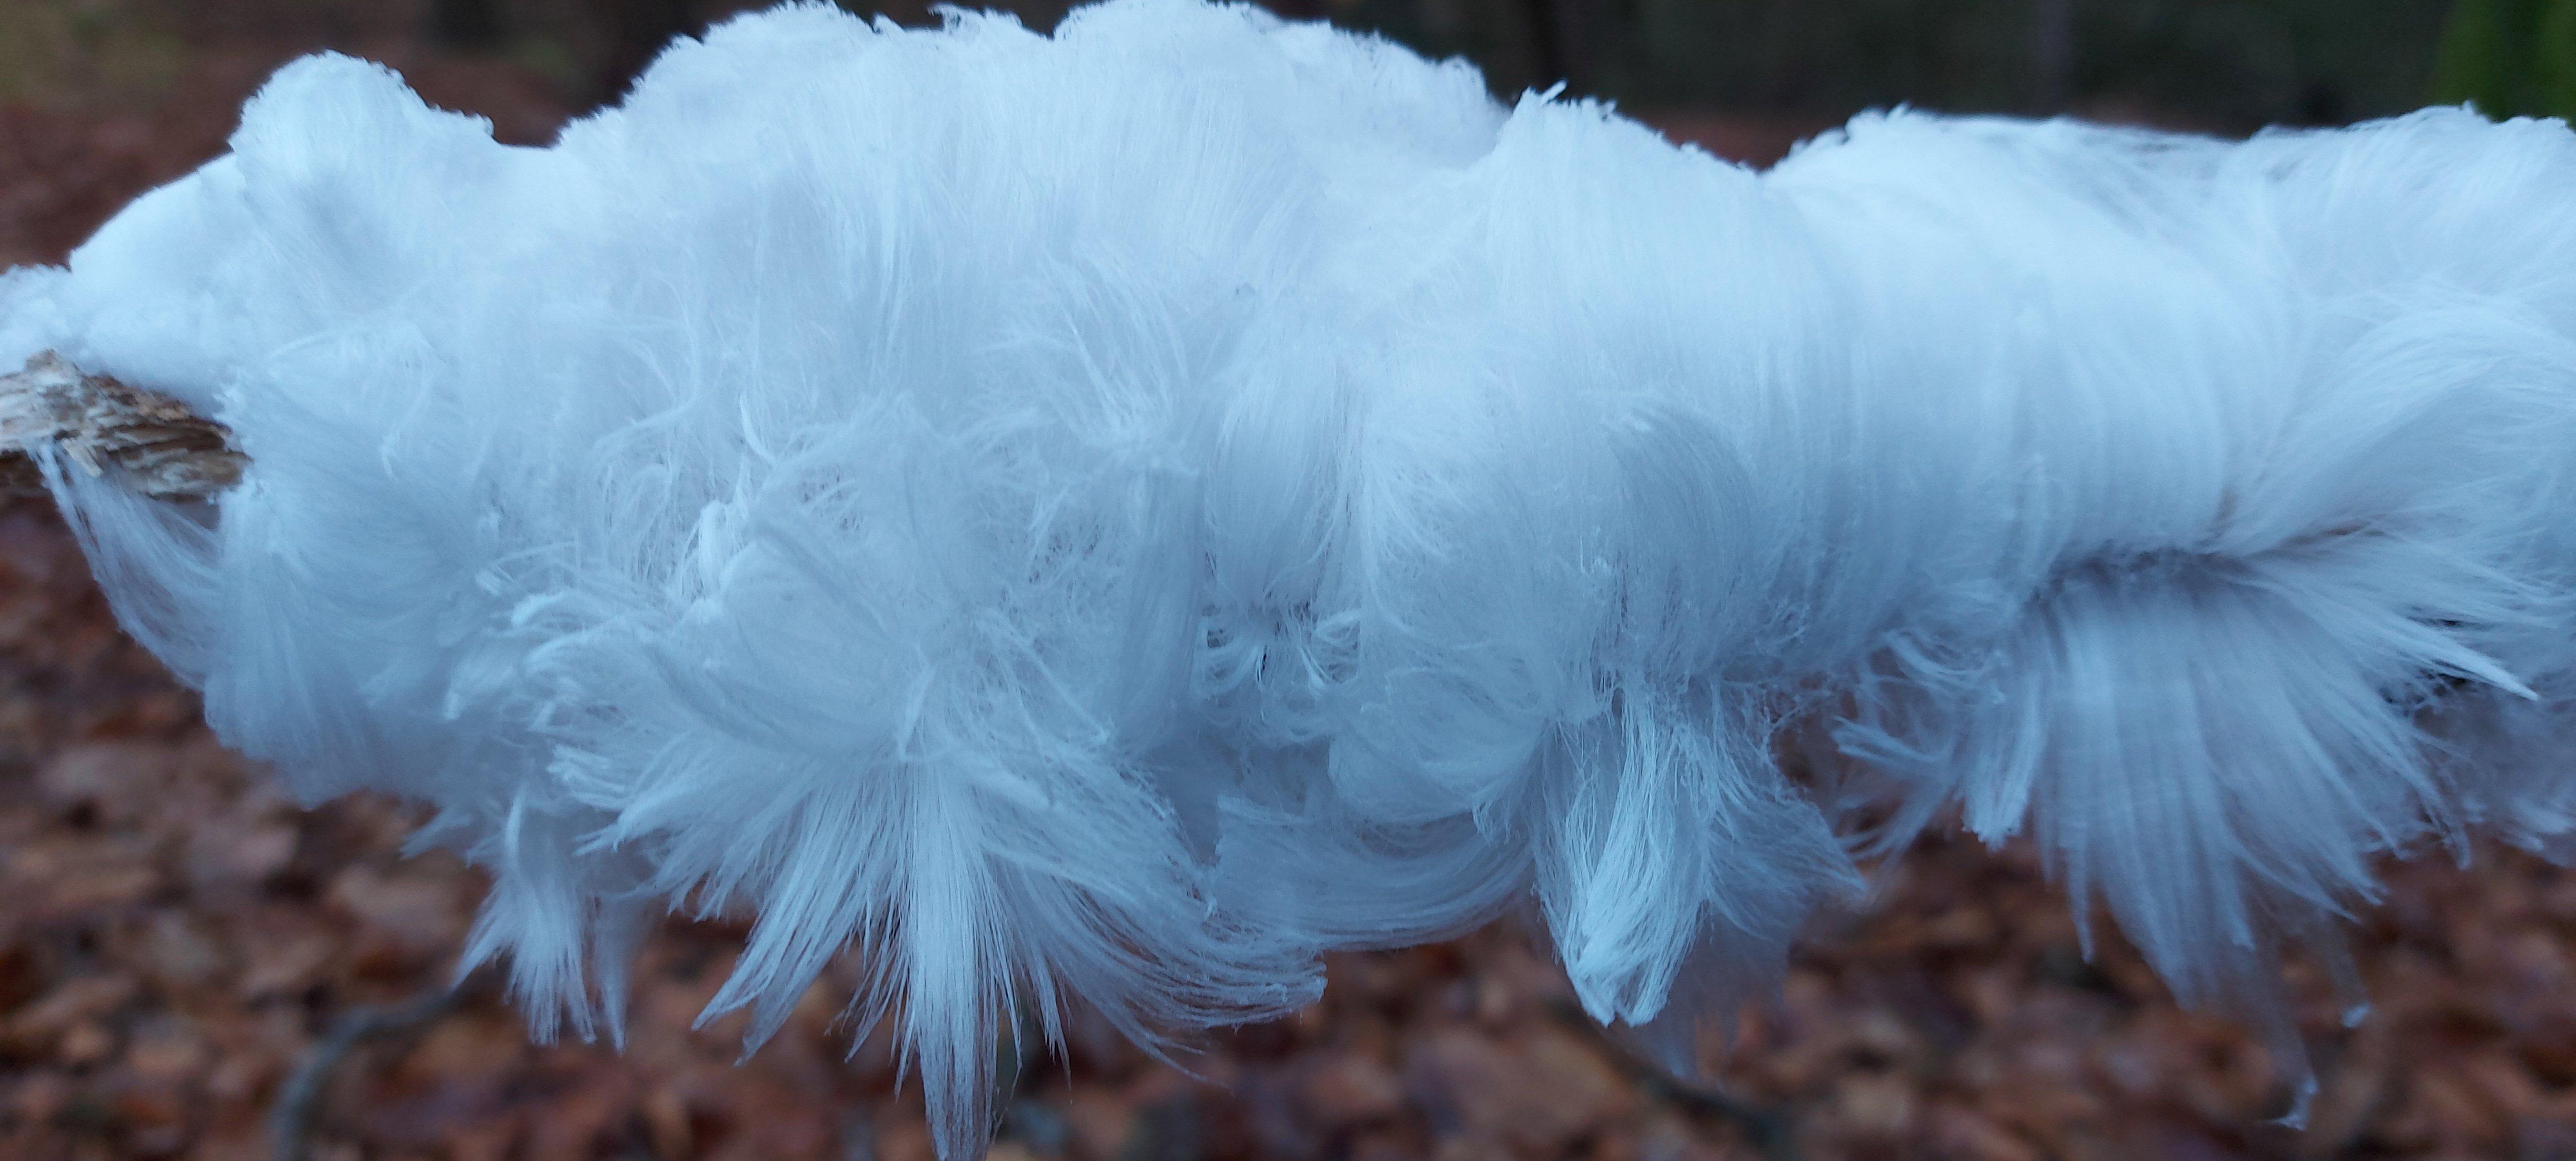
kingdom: Fungi
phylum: Basidiomycota
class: Tremellomycetes
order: Tremellales
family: Exidiaceae
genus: Exidiopsis
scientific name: Exidiopsis effusa
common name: smuk bævrehinde
